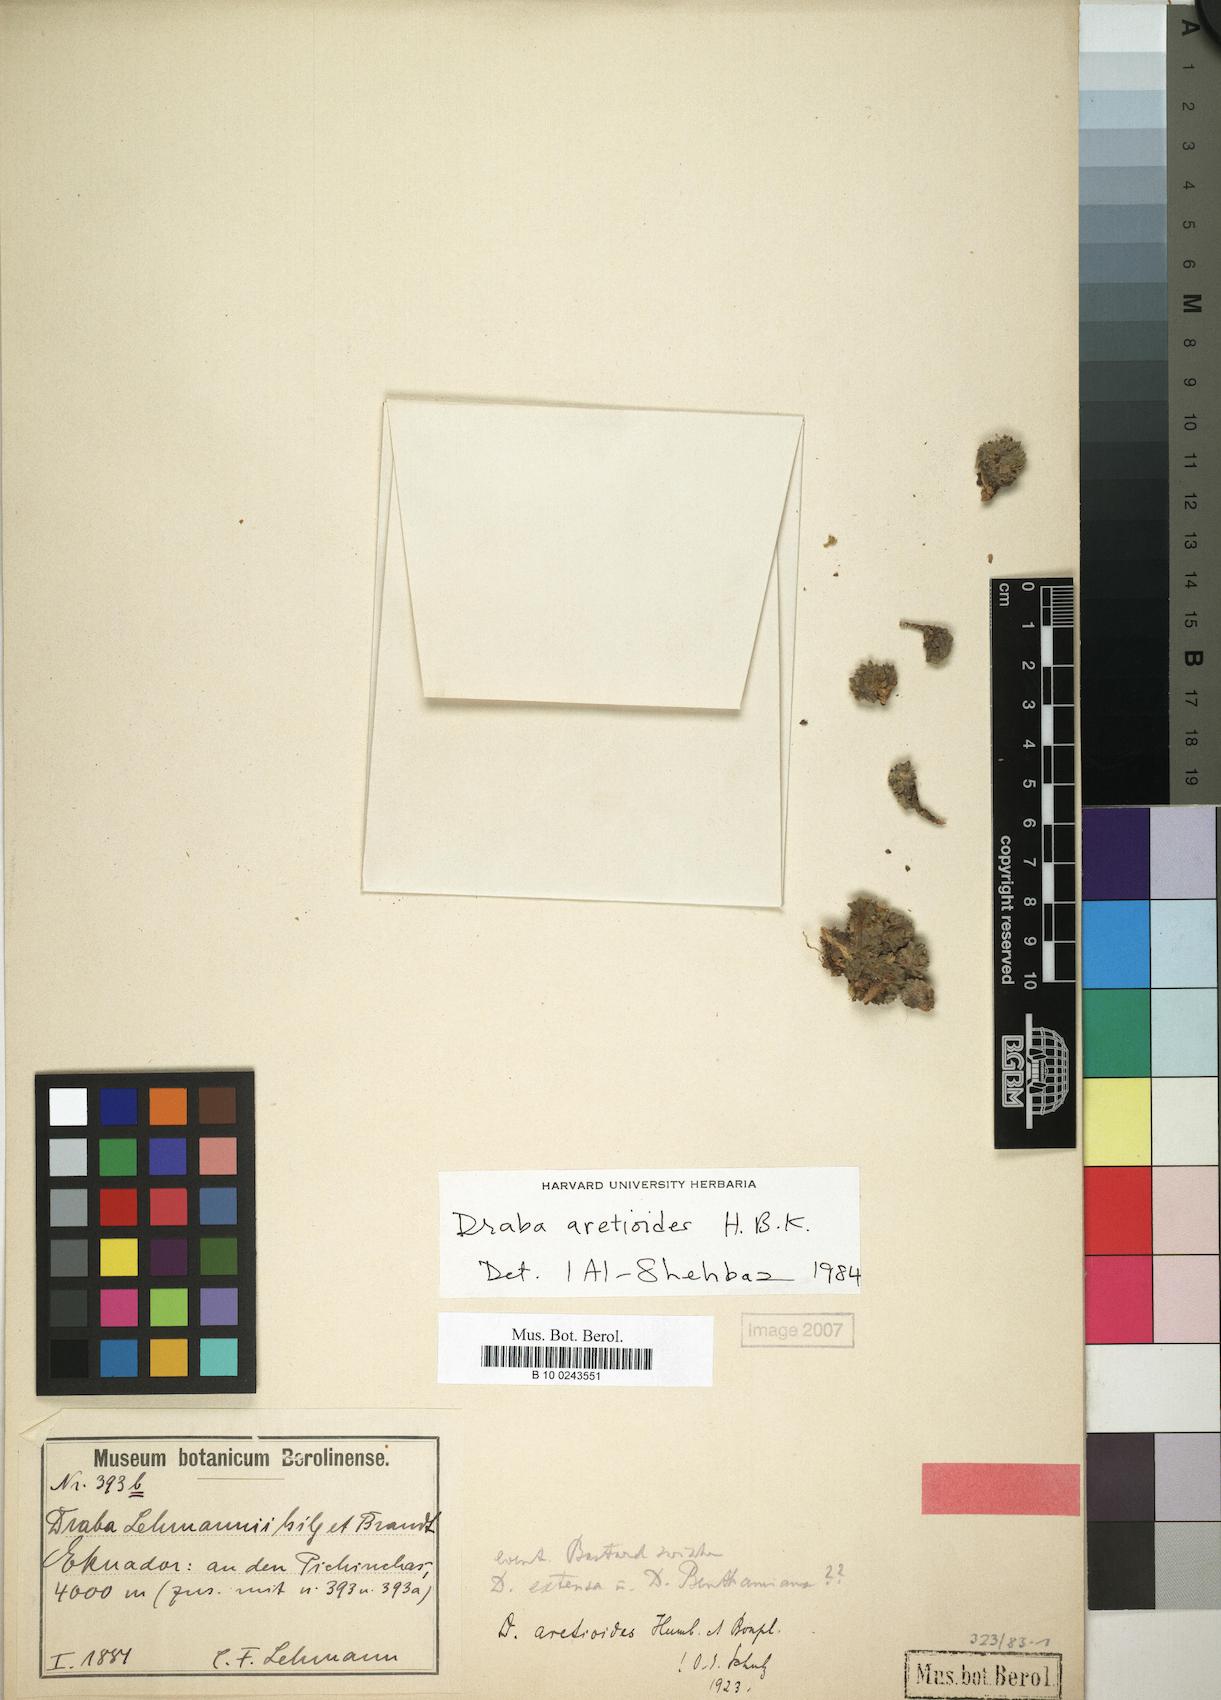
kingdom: Plantae
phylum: Tracheophyta
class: Magnoliopsida
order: Brassicales
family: Brassicaceae
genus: Draba
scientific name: Draba aretioides
